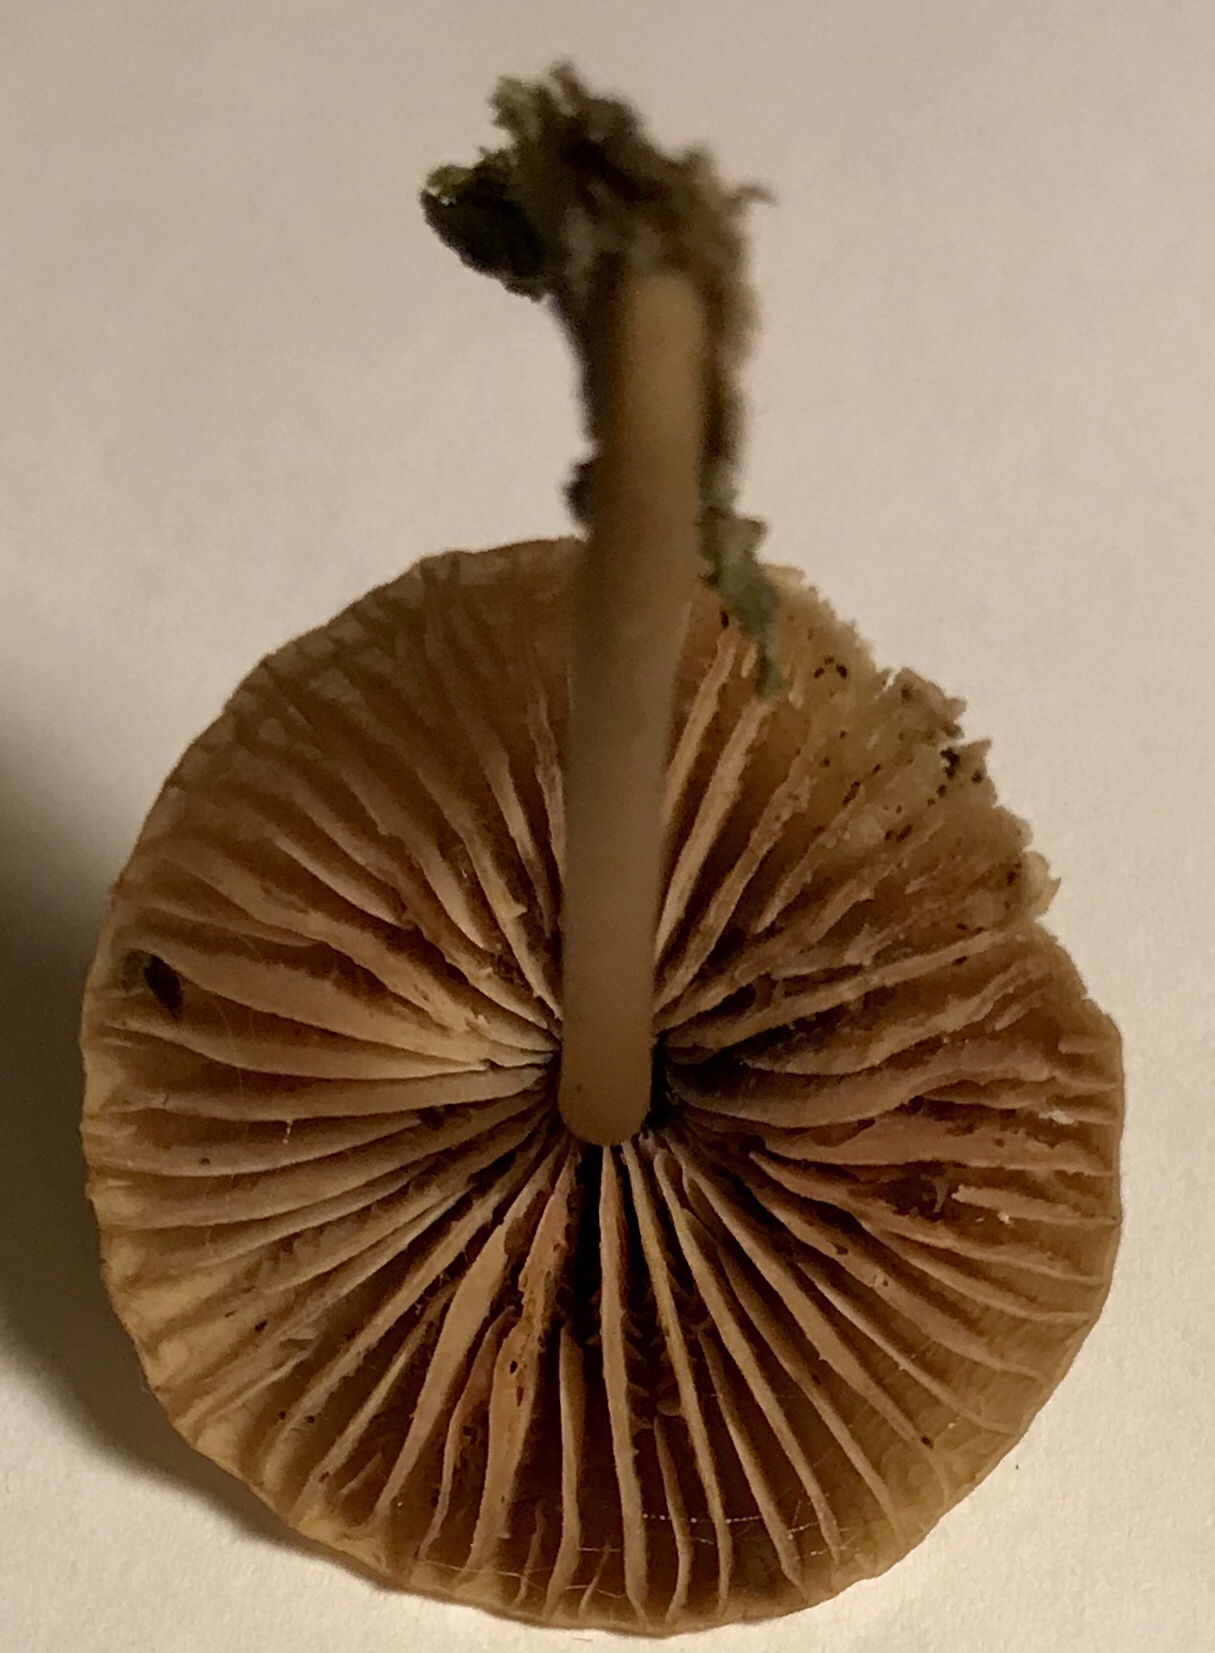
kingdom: Fungi
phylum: Basidiomycota
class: Agaricomycetes
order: Agaricales
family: Mycenaceae
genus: Mycena
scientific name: Mycena galericulata
